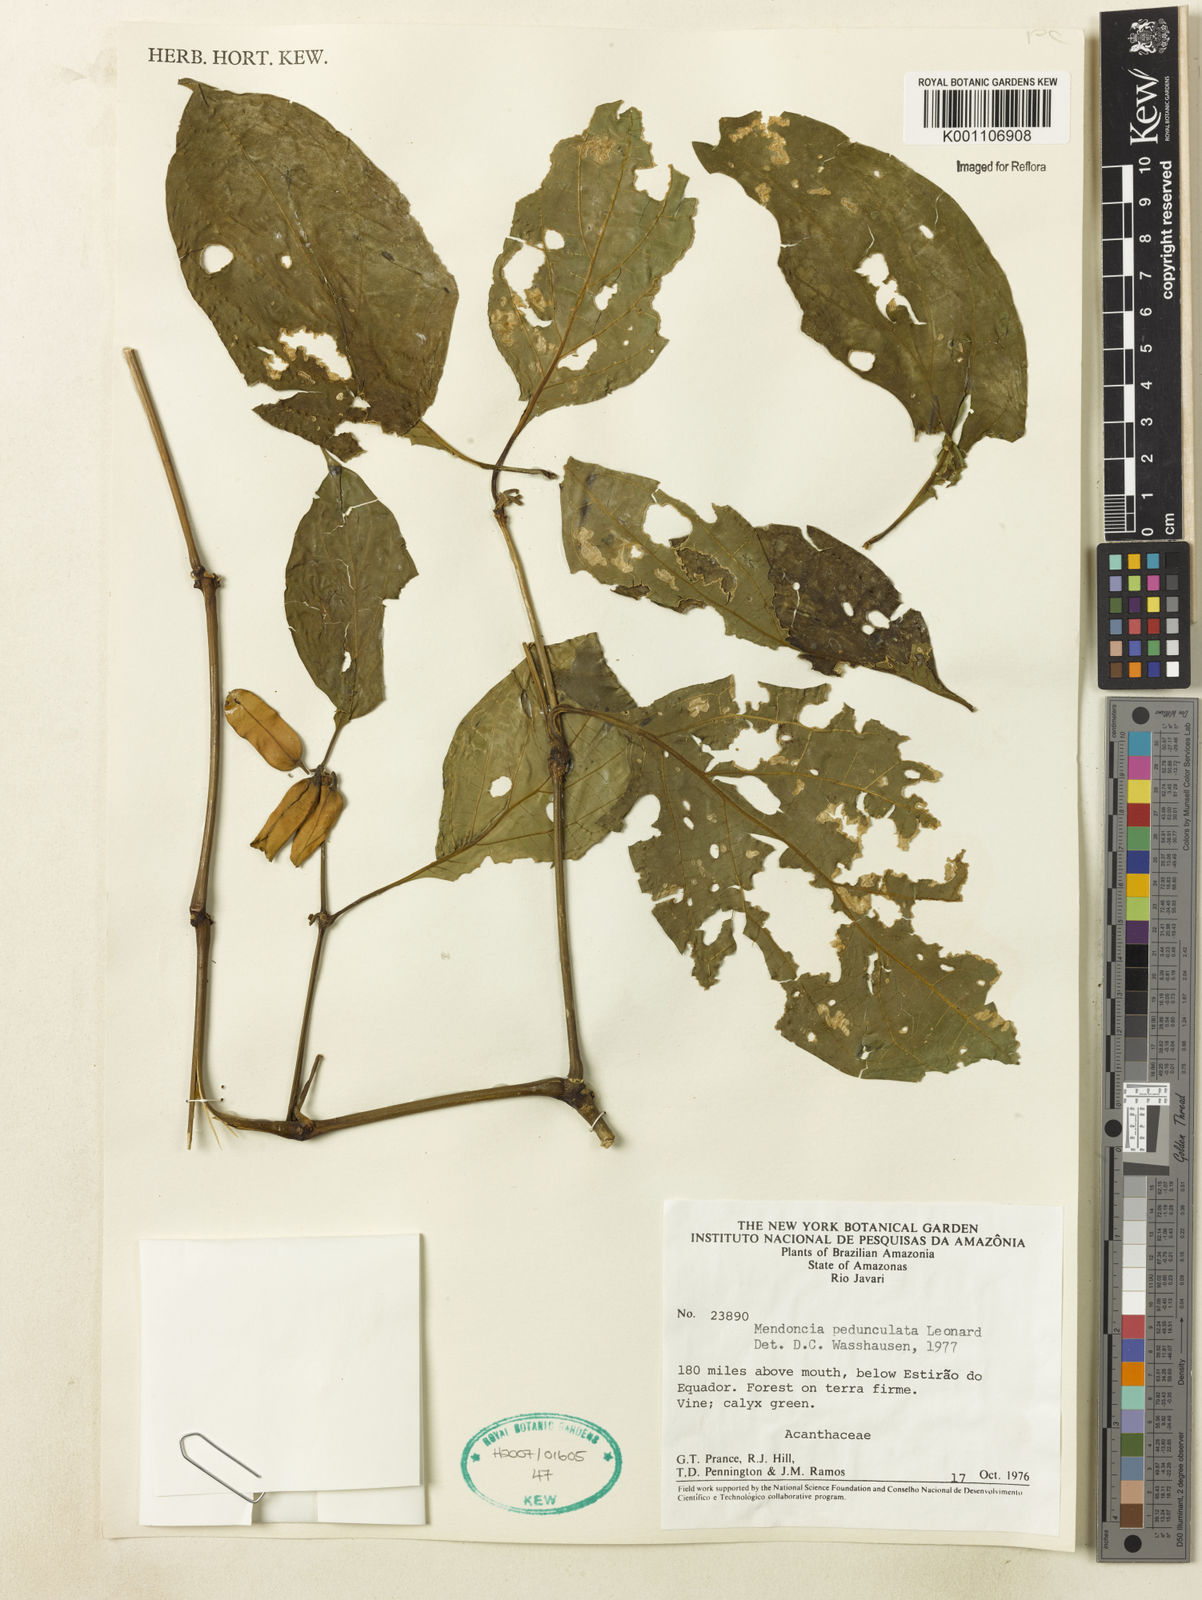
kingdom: Plantae
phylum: Tracheophyta
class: Magnoliopsida
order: Lamiales
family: Acanthaceae
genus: Mendoncia
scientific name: Mendoncia pedunculata
